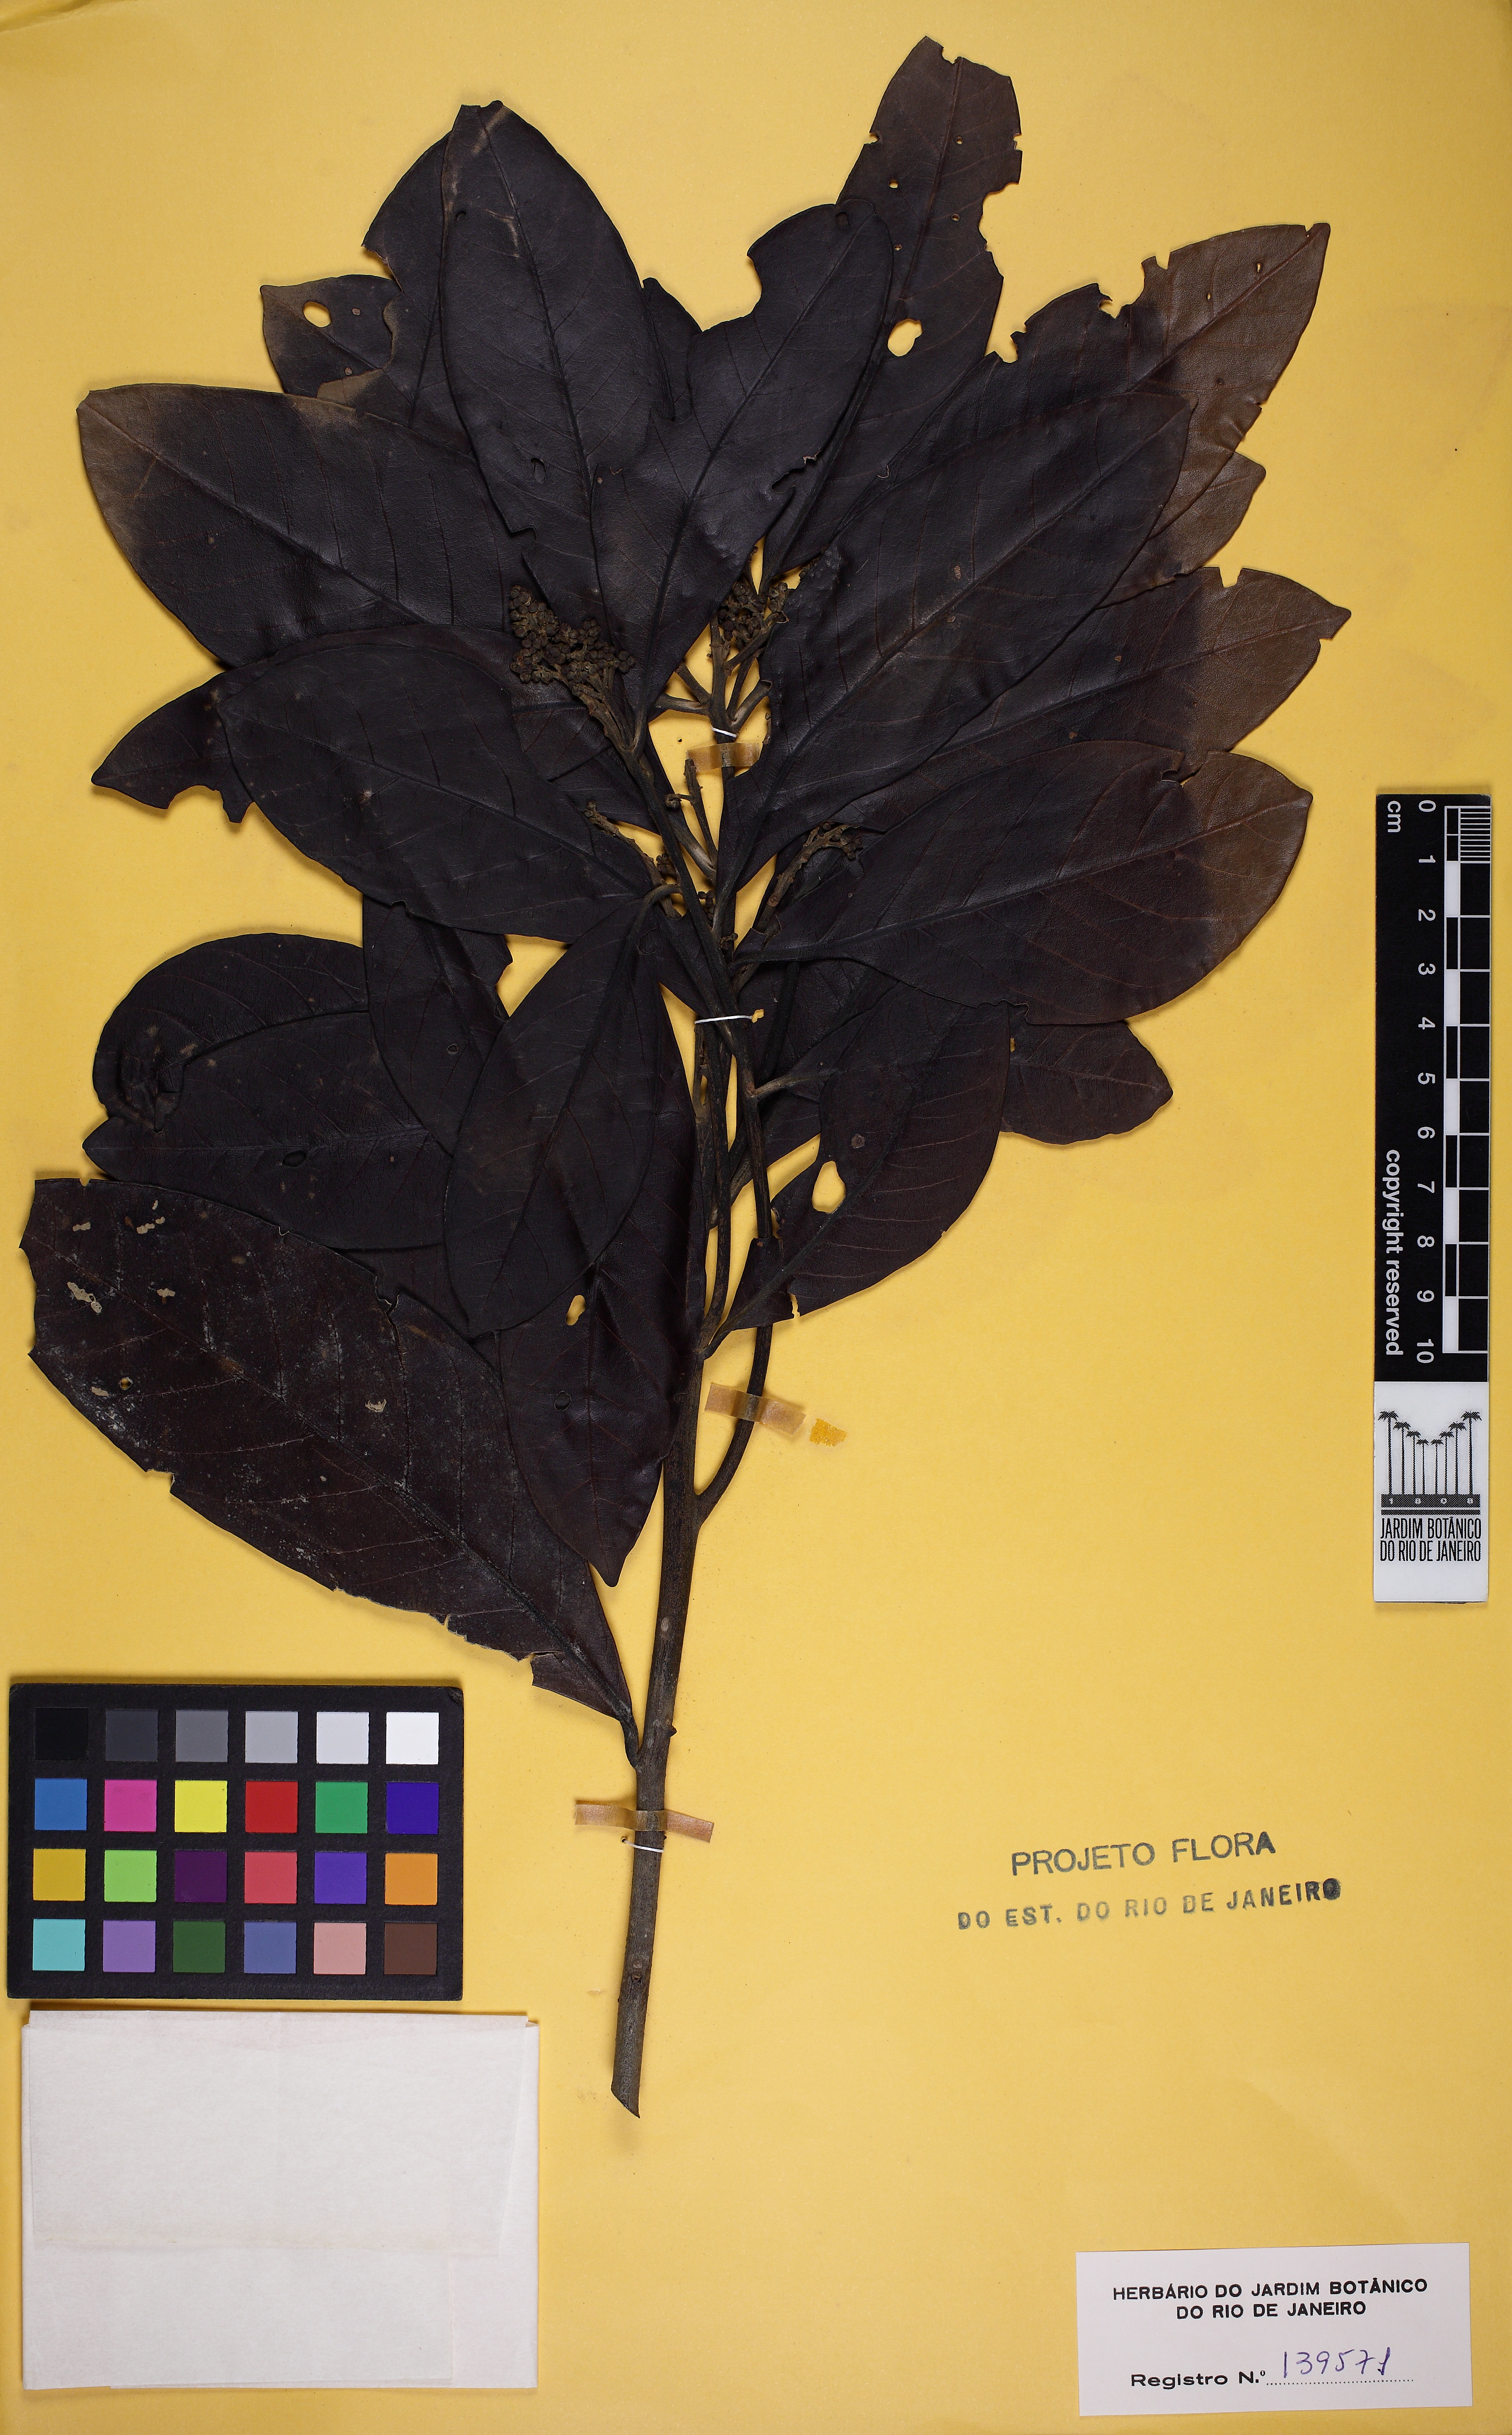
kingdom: Plantae
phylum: Tracheophyta
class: Magnoliopsida
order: Laurales
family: Lauraceae
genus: Ocotea
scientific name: Ocotea glaziovii
